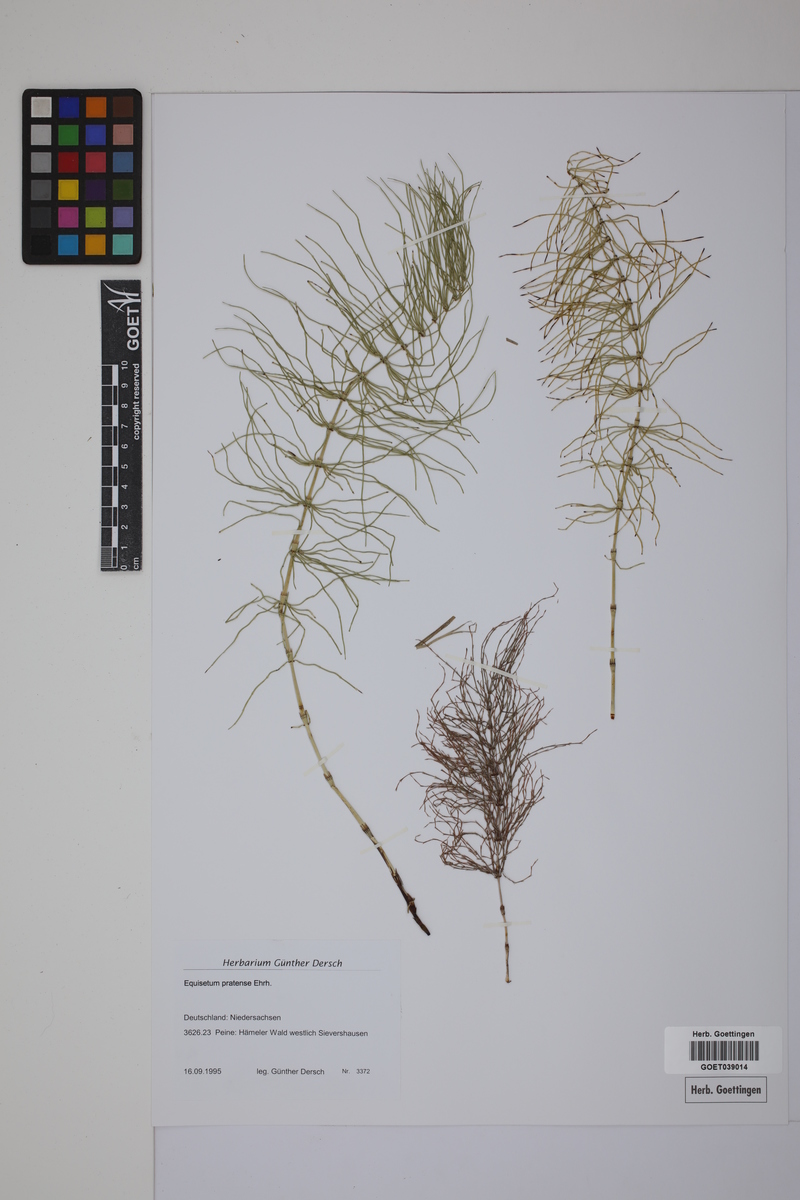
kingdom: Plantae
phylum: Tracheophyta
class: Polypodiopsida
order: Equisetales
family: Equisetaceae
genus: Equisetum
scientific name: Equisetum pratense
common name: Meadow horsetail
